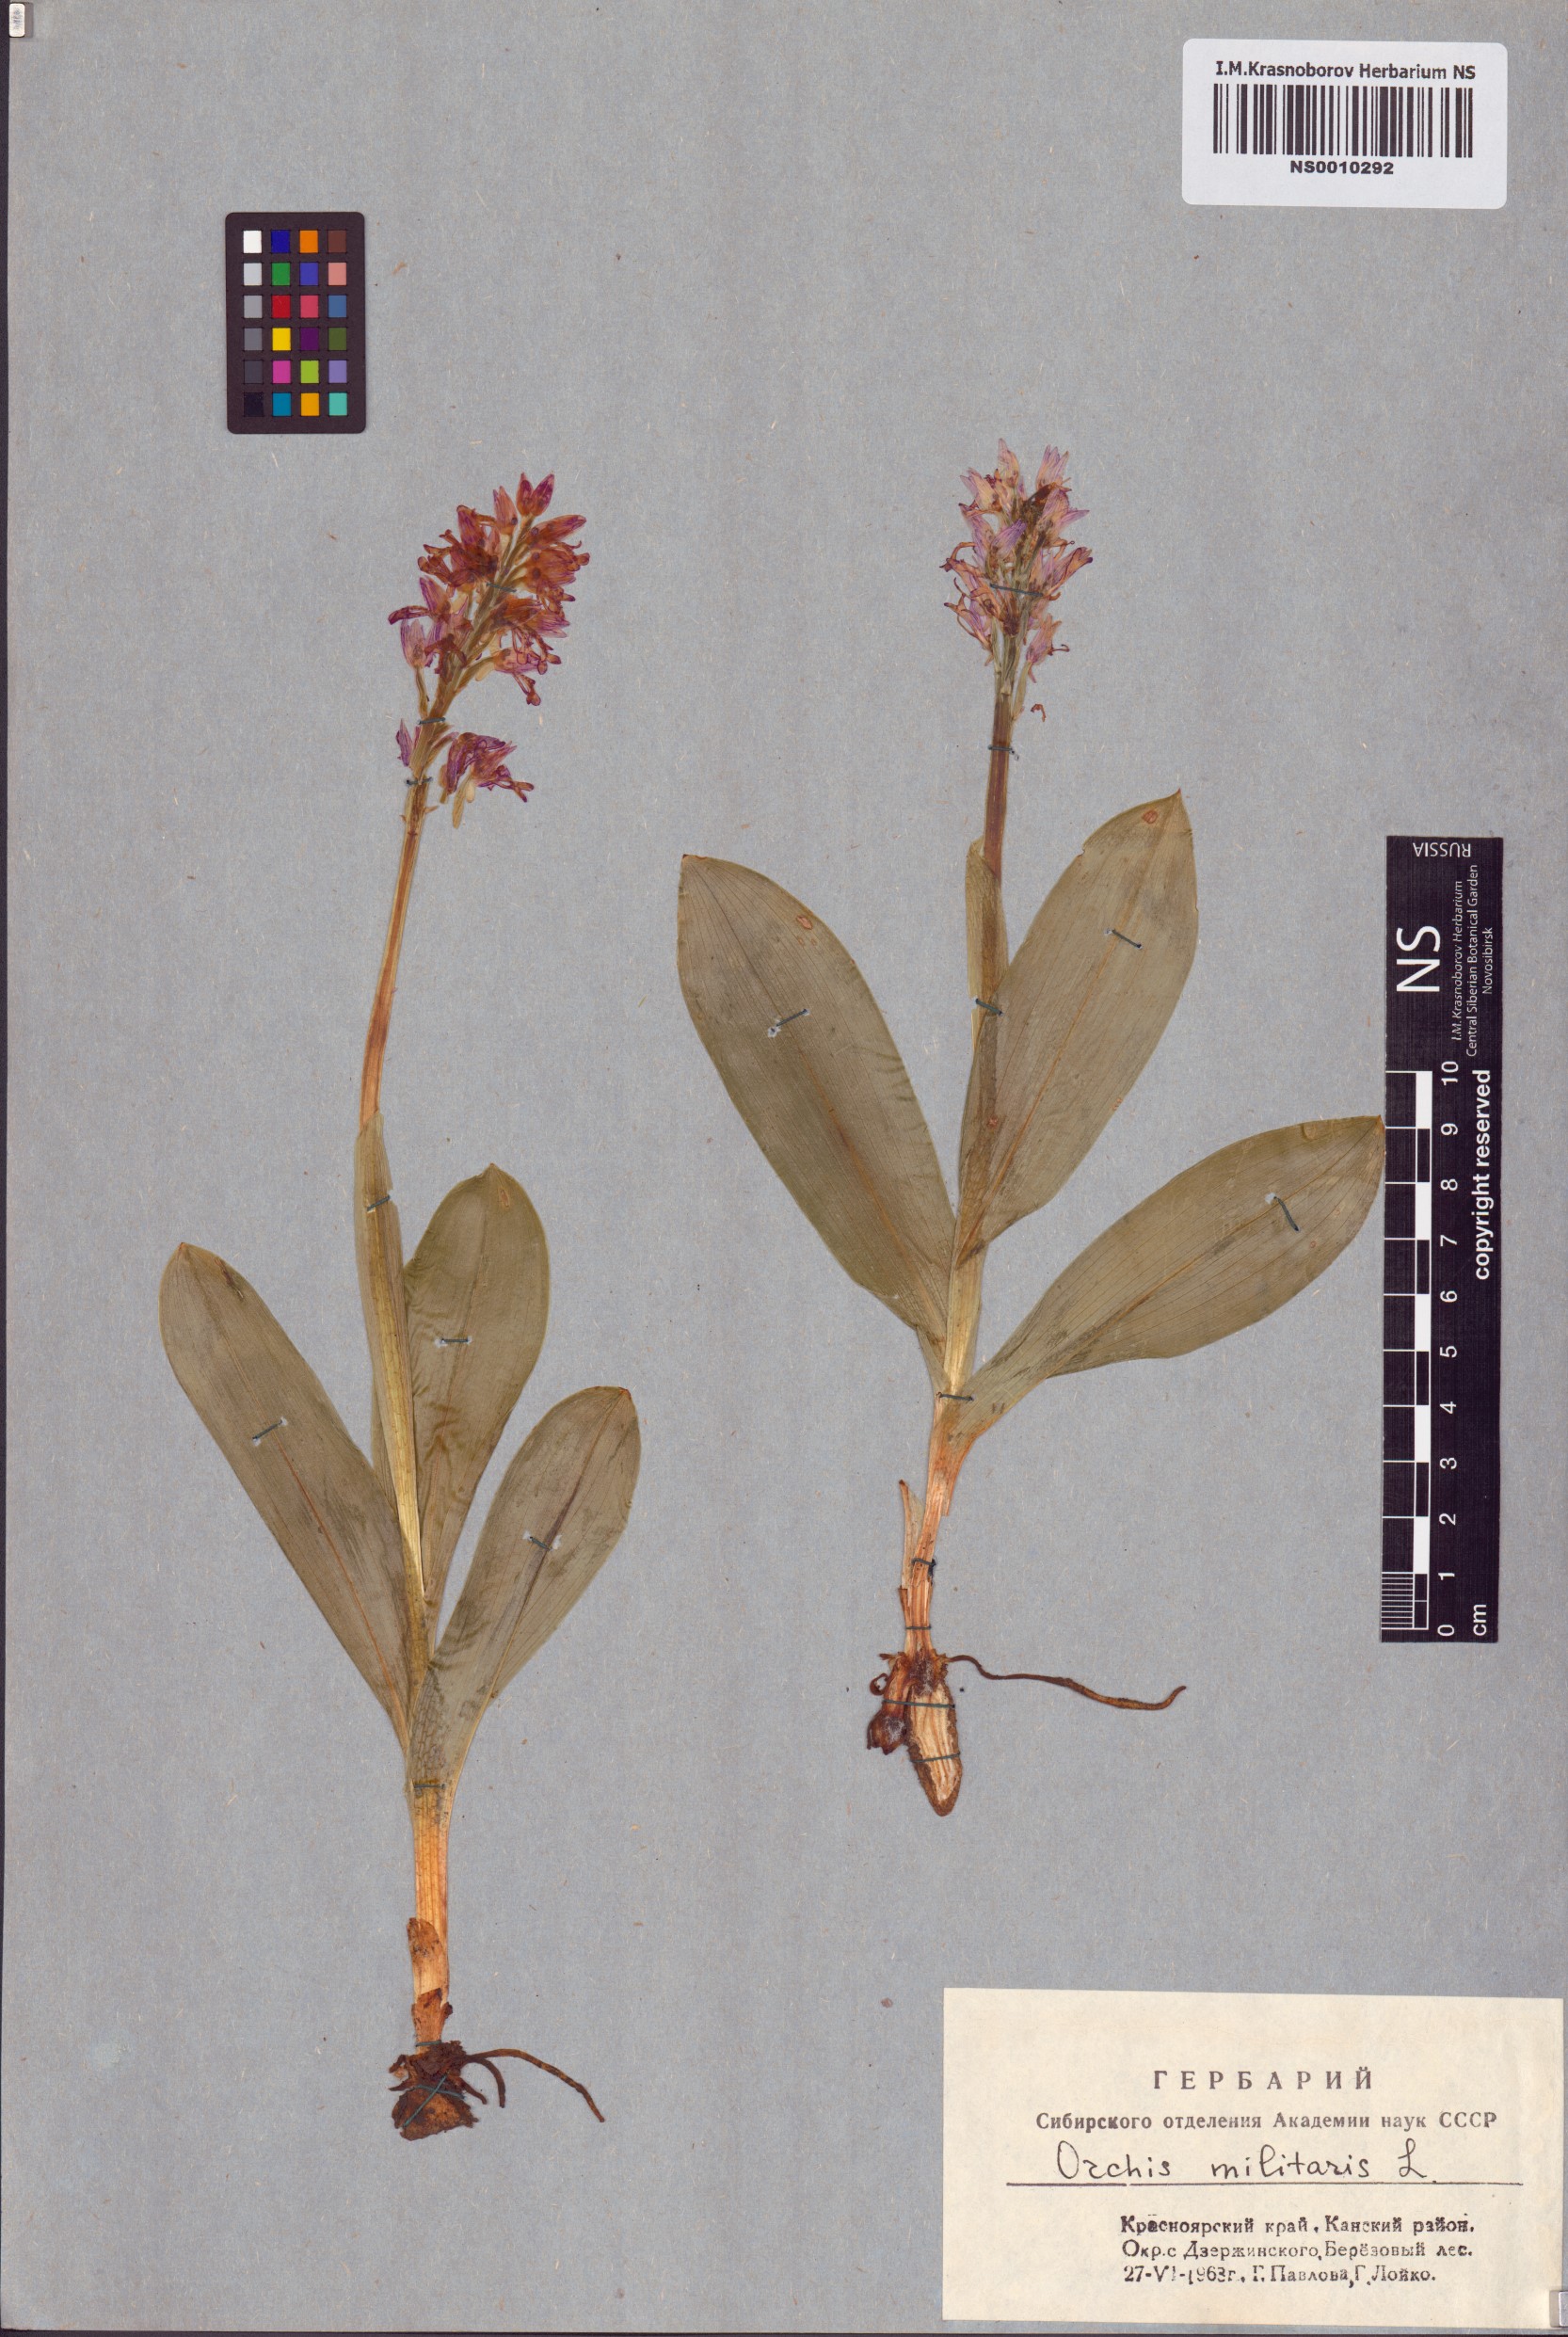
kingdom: Plantae
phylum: Tracheophyta
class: Liliopsida
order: Asparagales
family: Orchidaceae
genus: Orchis
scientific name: Orchis militaris
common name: Military orchid
